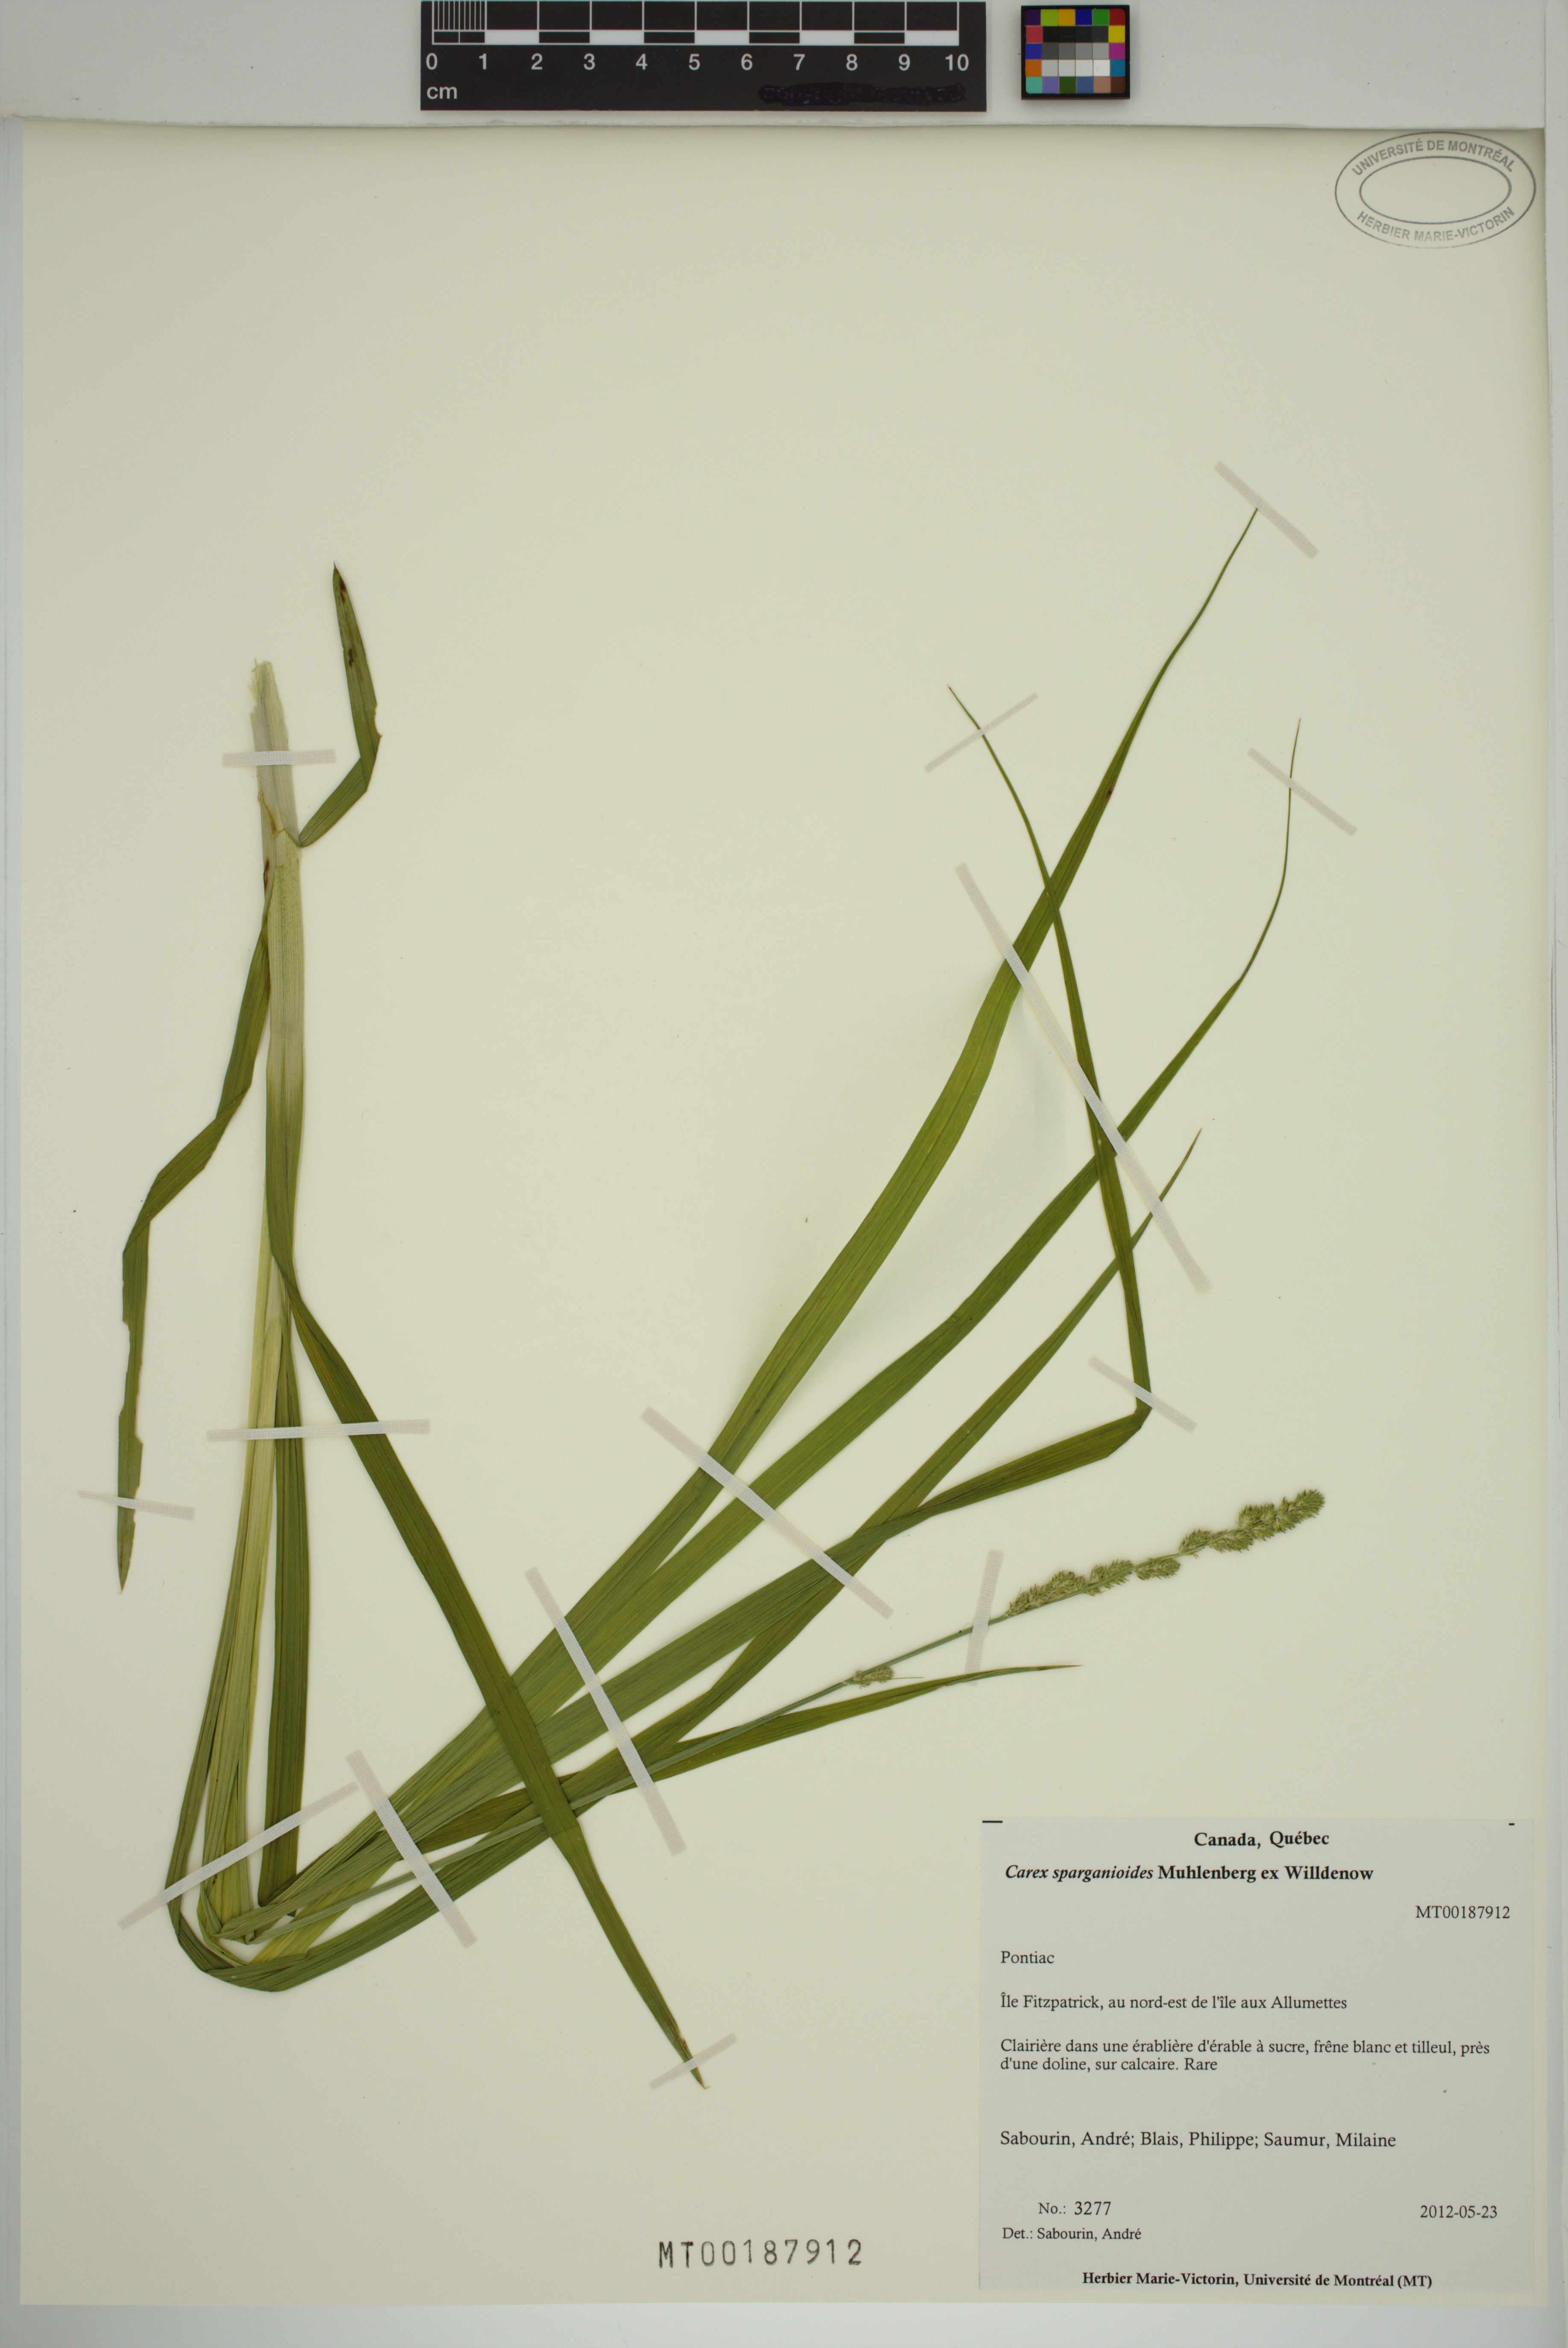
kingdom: Plantae
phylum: Tracheophyta
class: Liliopsida
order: Poales
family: Cyperaceae
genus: Carex
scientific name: Carex sparganioides
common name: Burreed sedge
